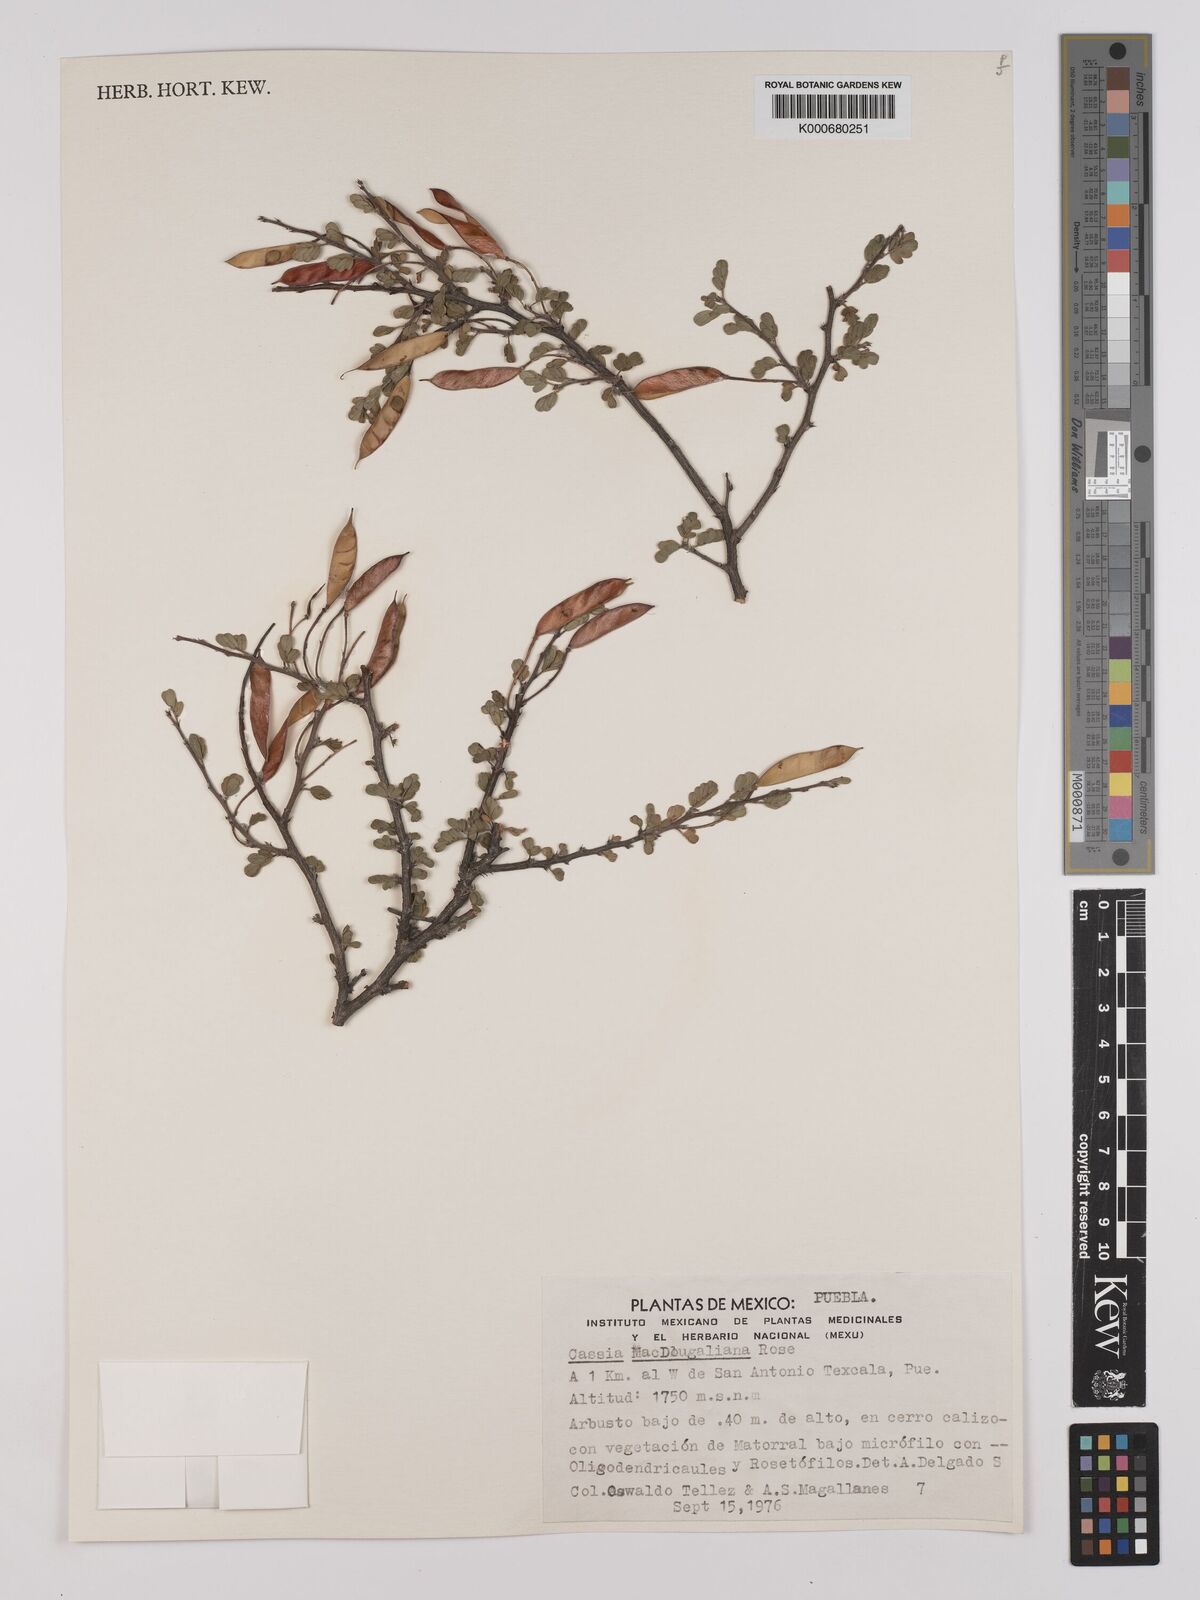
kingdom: Plantae
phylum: Tracheophyta
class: Magnoliopsida
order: Fabales
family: Fabaceae
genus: Chamaecrista
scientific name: Chamaecrista greggii
